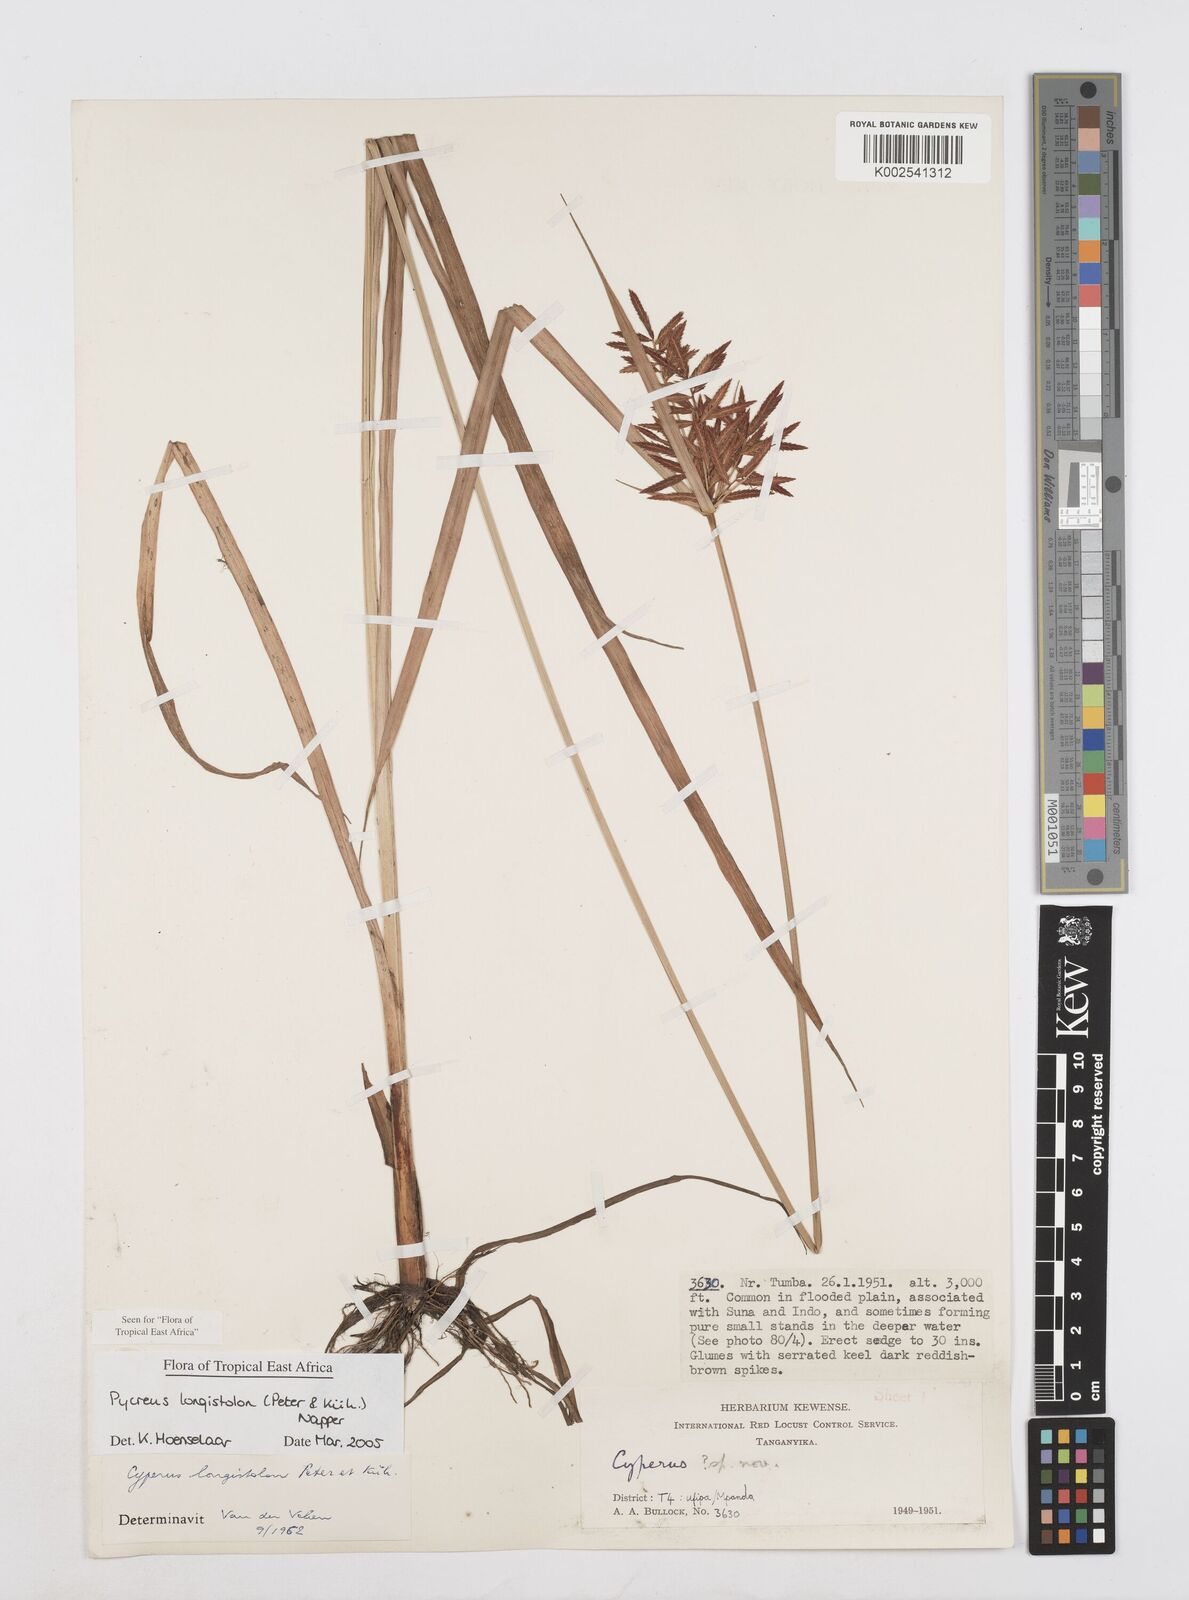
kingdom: Plantae
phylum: Tracheophyta
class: Liliopsida
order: Poales
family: Cyperaceae
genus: Cyperus
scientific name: Cyperus chrysanthus
